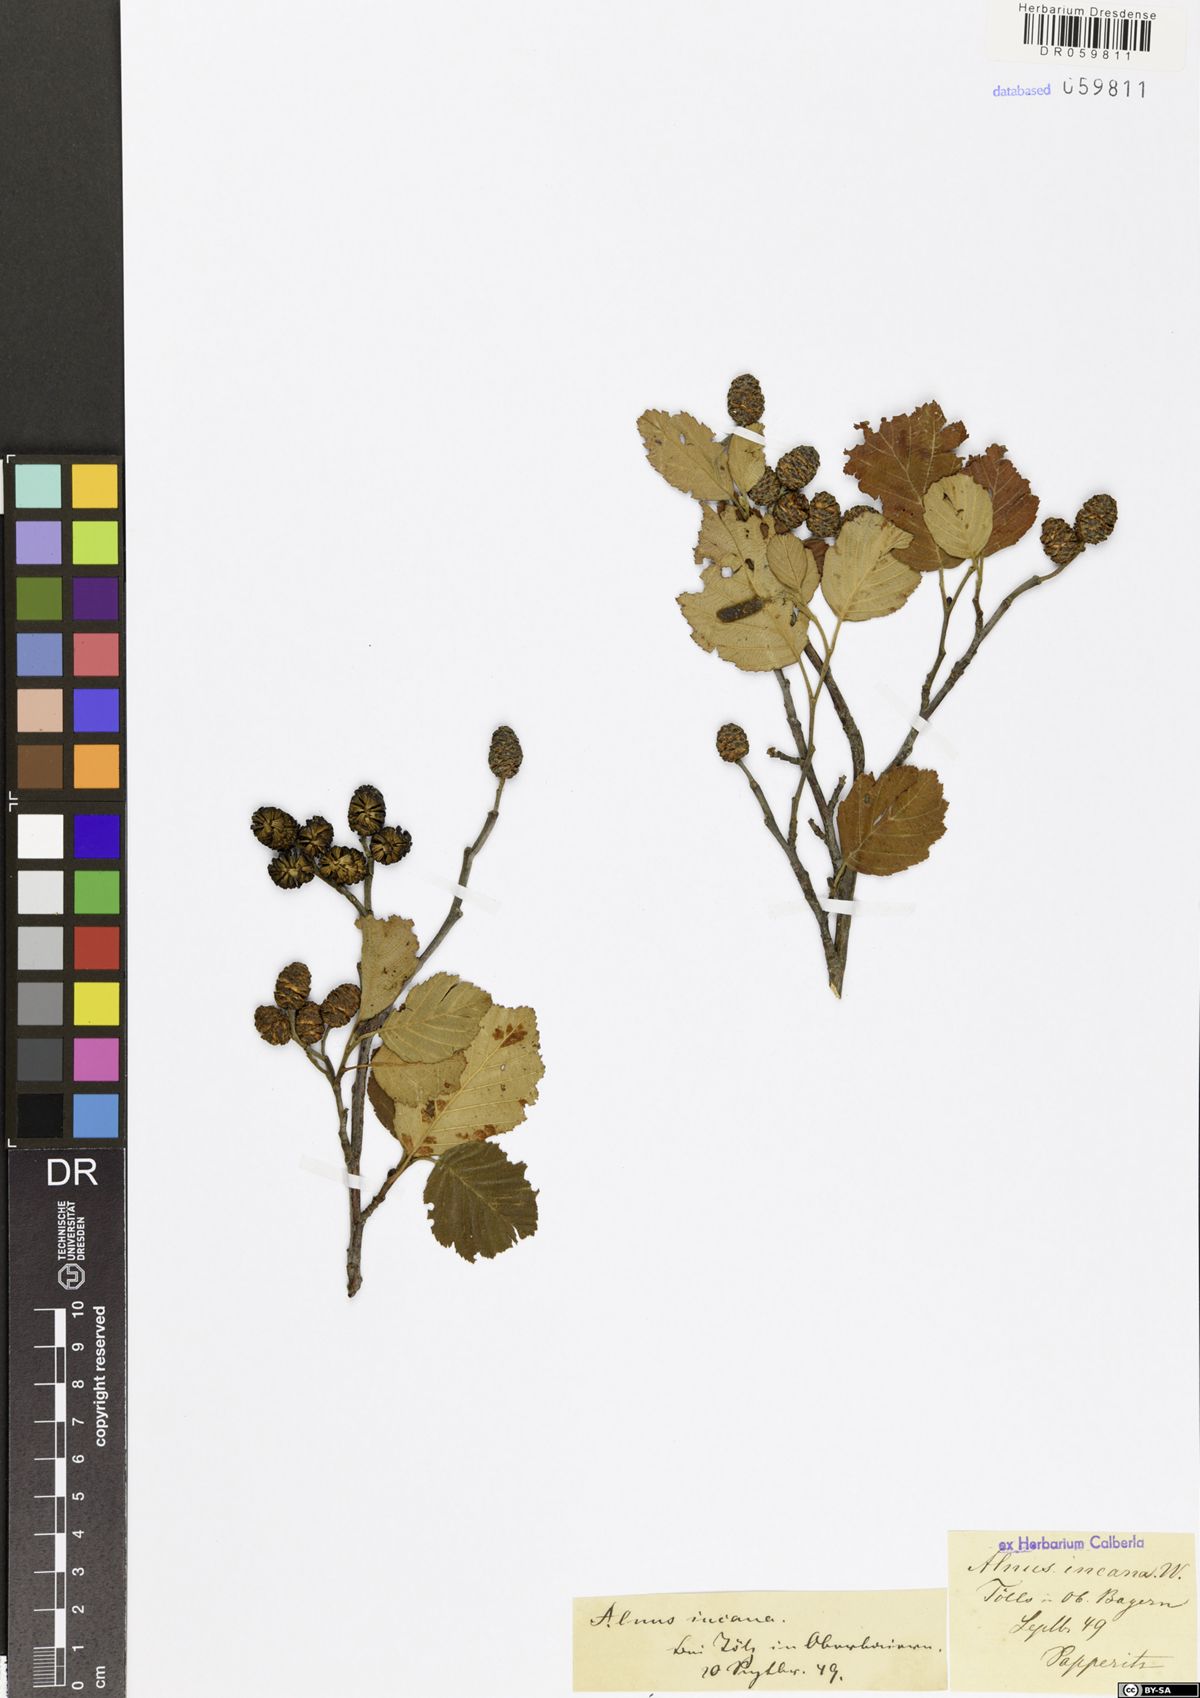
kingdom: Plantae
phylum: Tracheophyta
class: Magnoliopsida
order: Fagales
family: Betulaceae
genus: Alnus
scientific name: Alnus incana
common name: Grey alder
